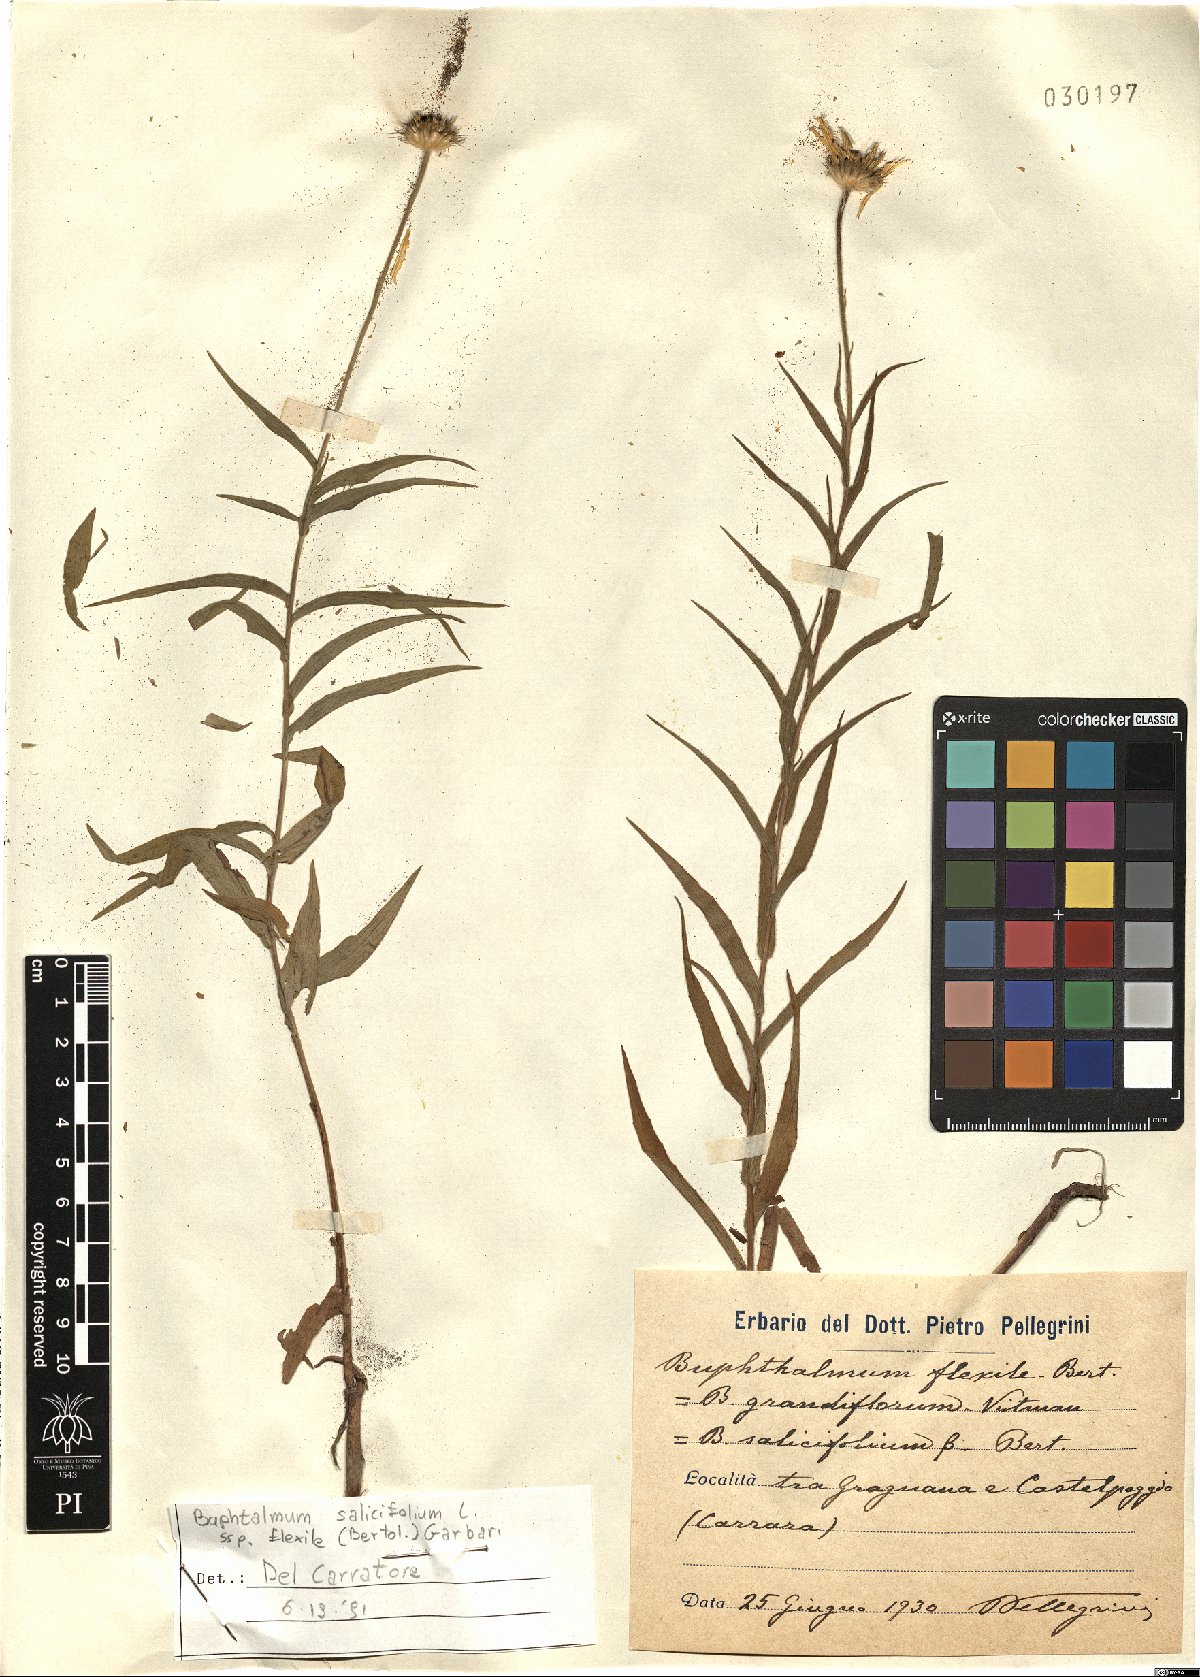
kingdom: Plantae
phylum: Tracheophyta
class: Magnoliopsida
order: Asterales
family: Asteraceae
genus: Buphthalmum
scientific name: Buphthalmum salicifolium
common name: Willow-leaved yellow-oxeye
